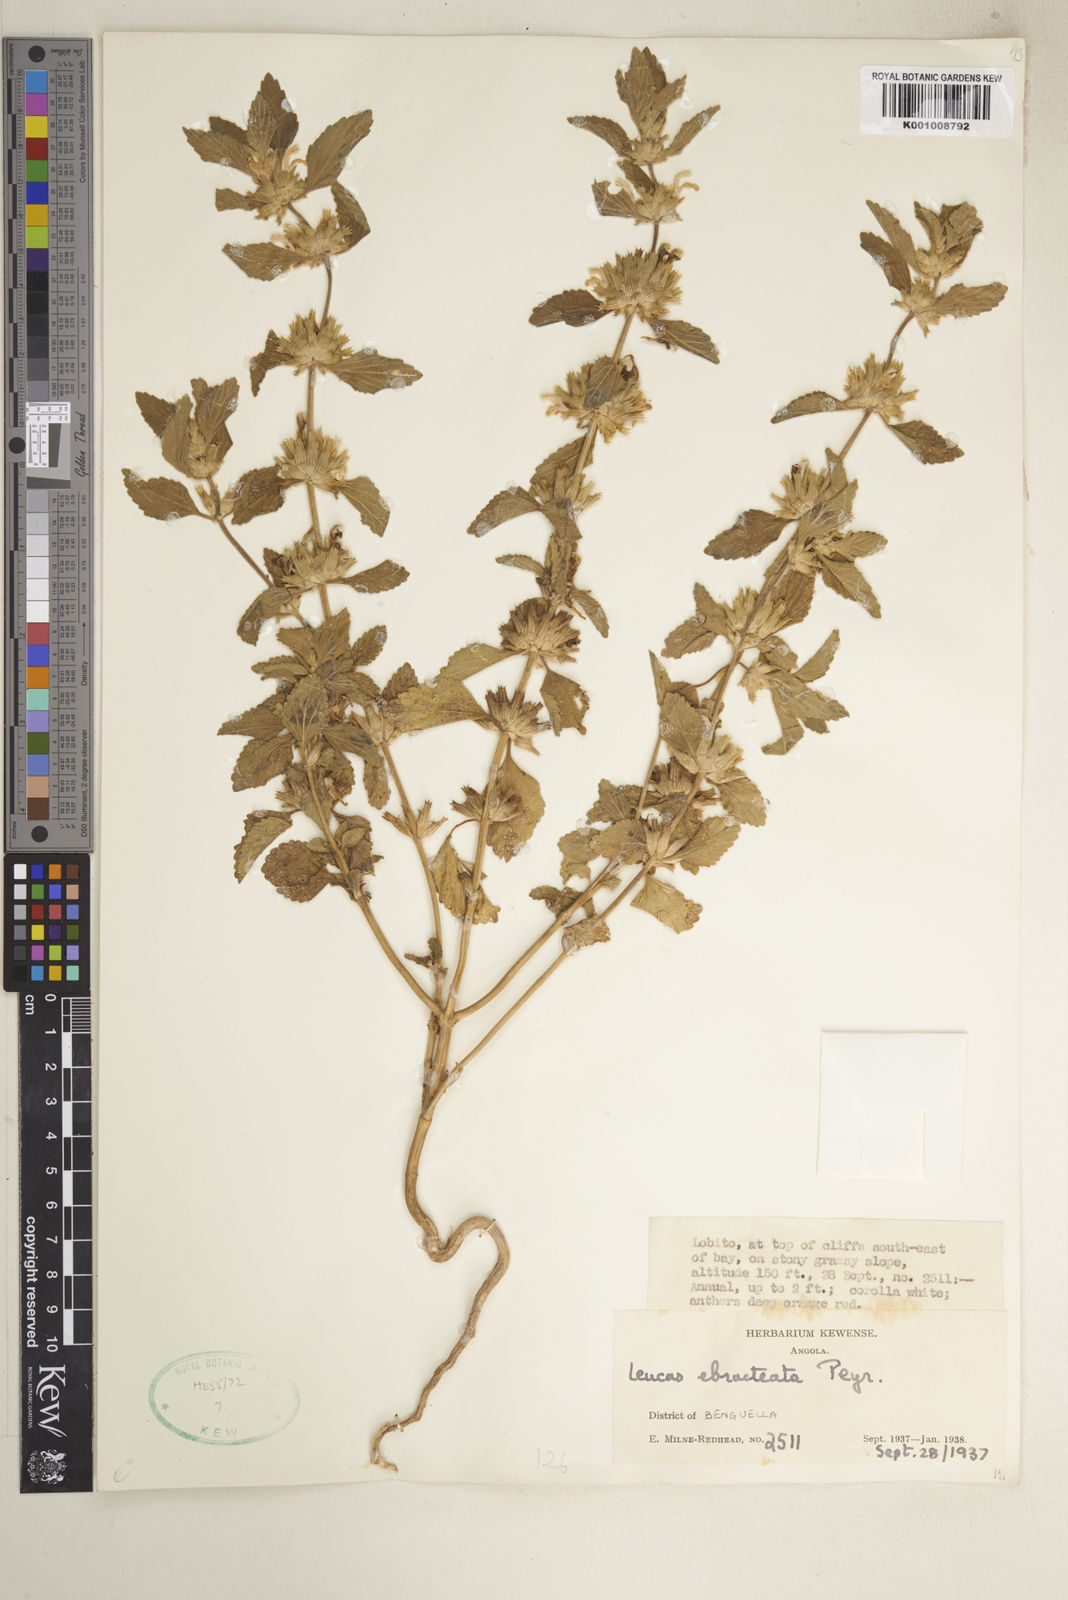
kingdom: Plantae
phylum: Tracheophyta
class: Magnoliopsida
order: Lamiales
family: Lamiaceae
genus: Leucas
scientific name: Leucas ebracteata
